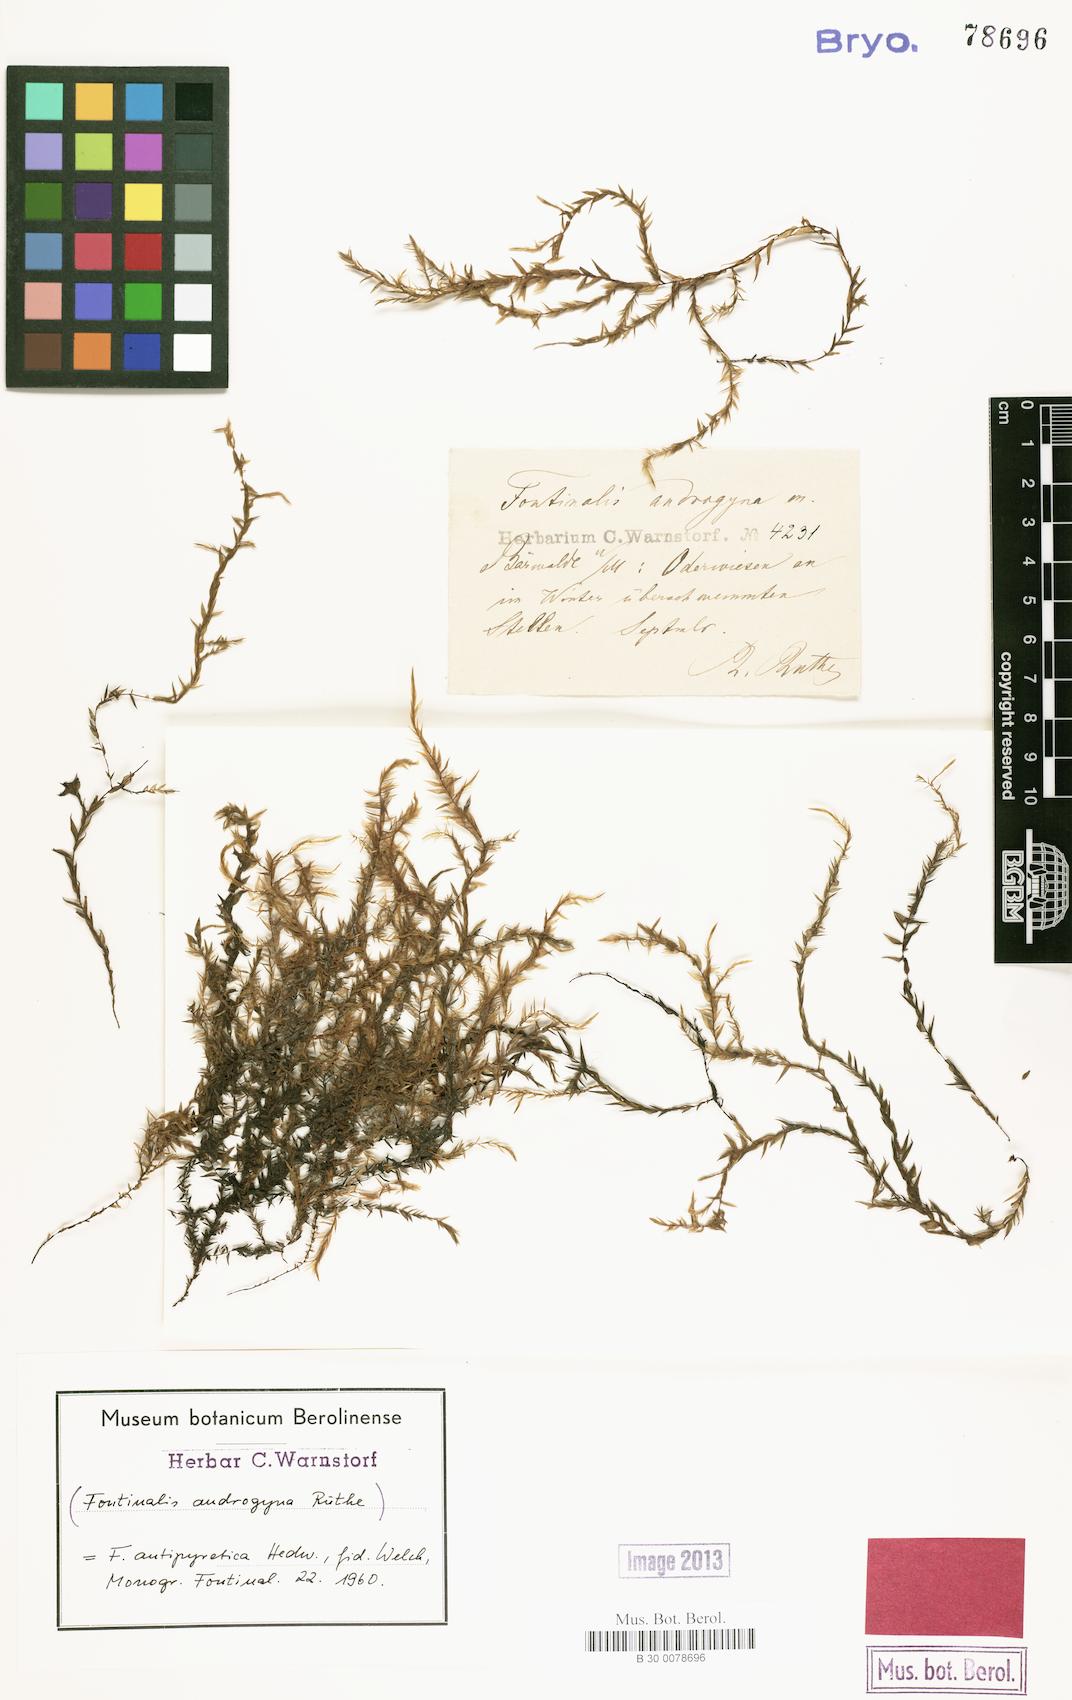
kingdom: Plantae
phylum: Bryophyta
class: Bryopsida
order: Hypnales
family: Fontinalaceae
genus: Fontinalis
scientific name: Fontinalis antipyretica
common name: Greater water-moss
